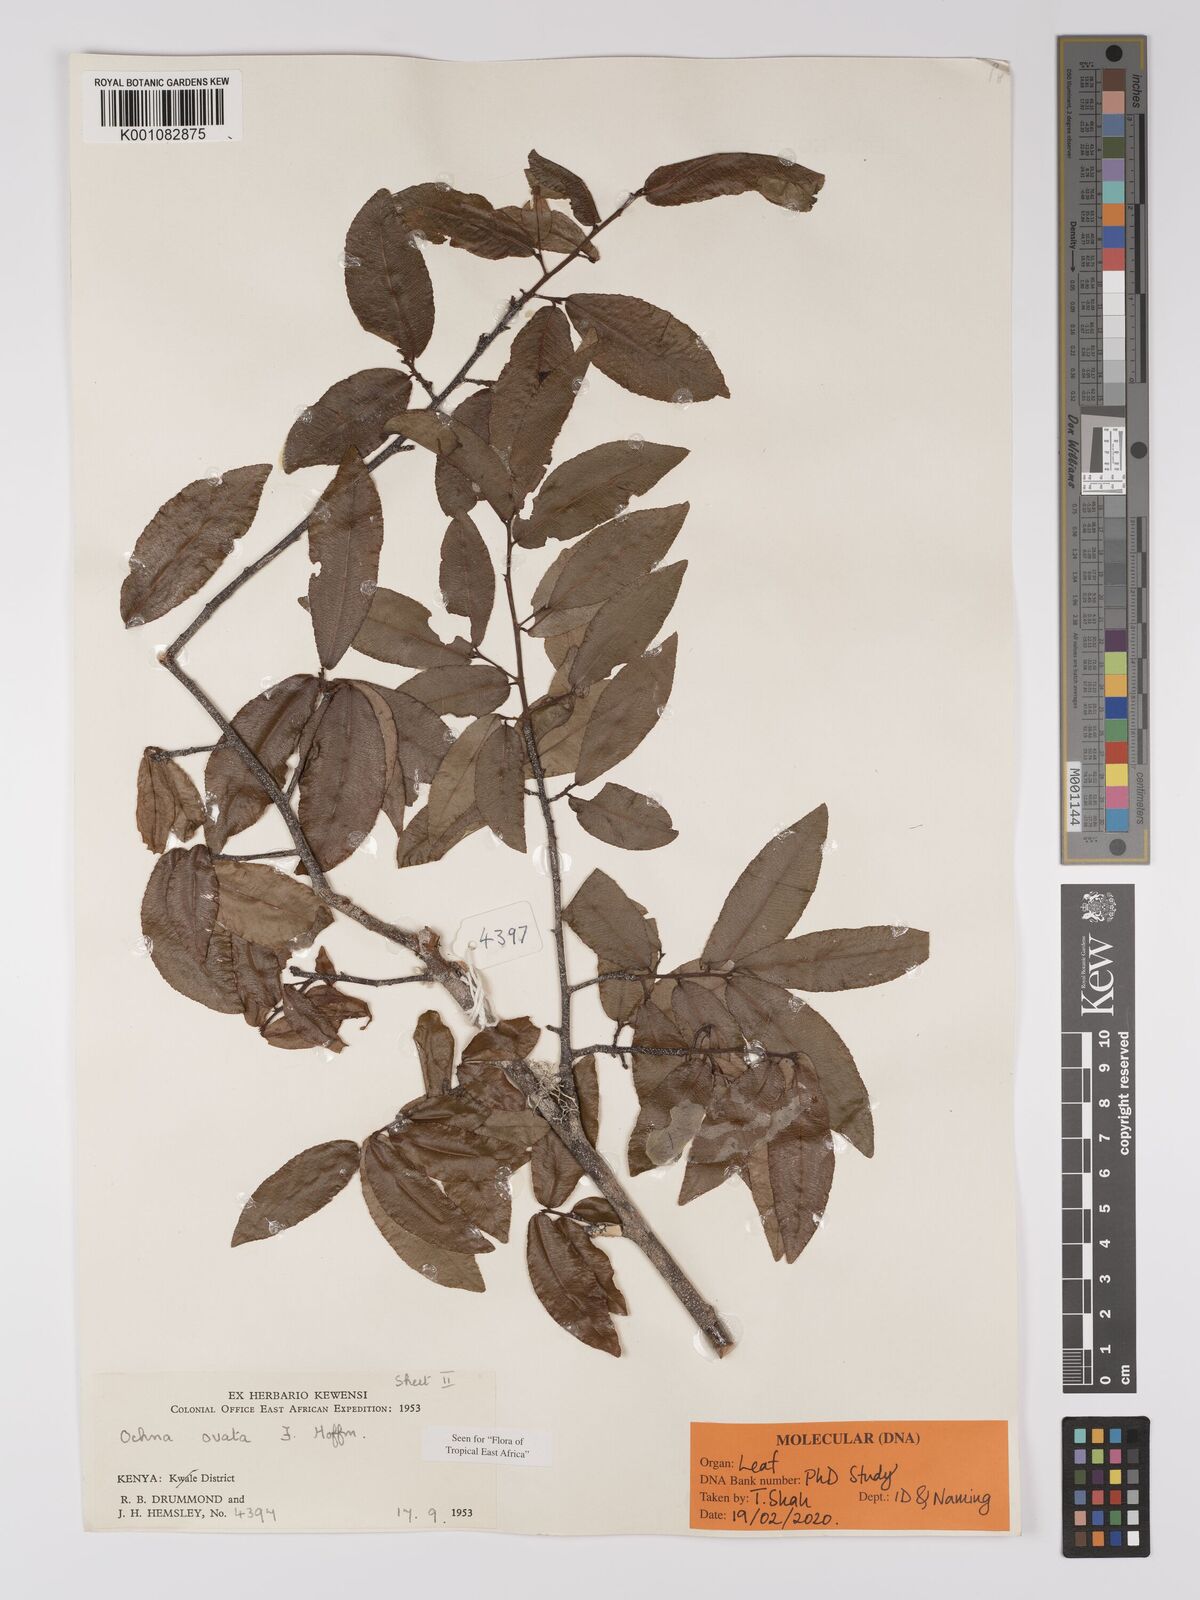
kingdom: Plantae
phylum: Tracheophyta
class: Magnoliopsida
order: Malpighiales
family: Ochnaceae
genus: Ochna
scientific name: Ochna ovata
